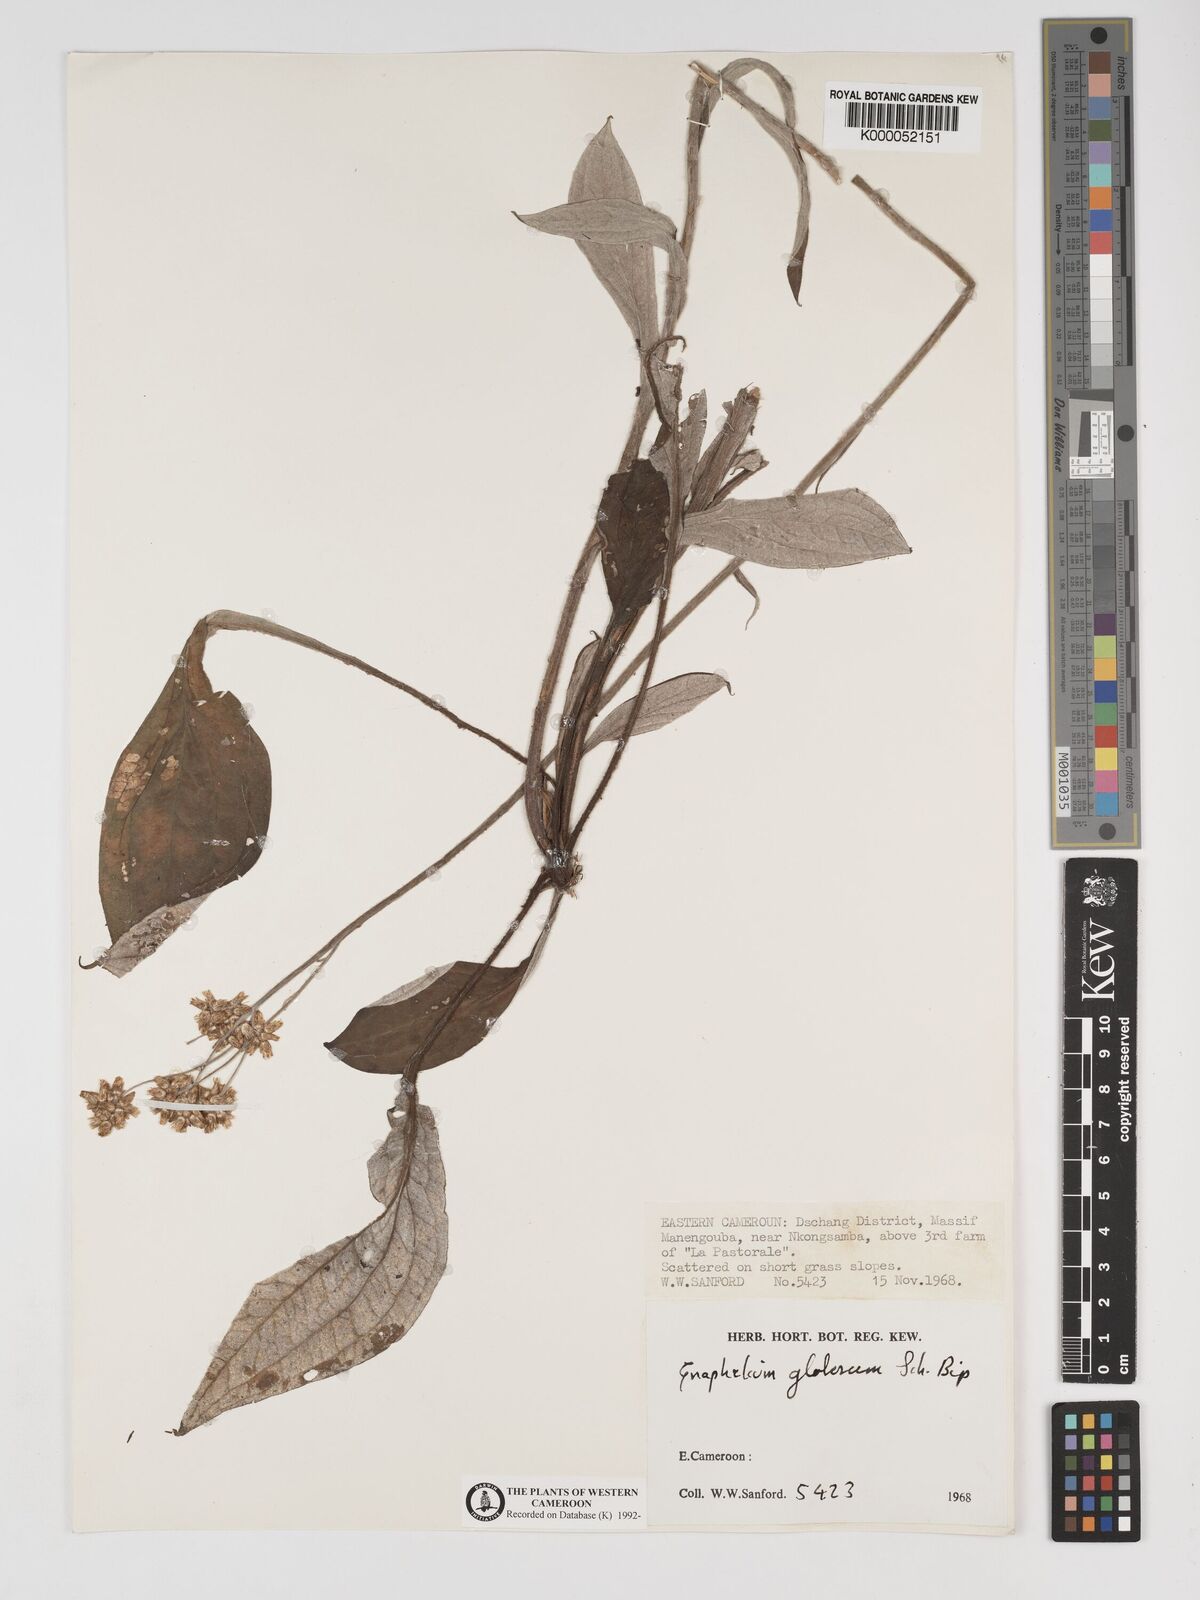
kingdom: Plantae
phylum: Tracheophyta
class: Magnoliopsida
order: Asterales
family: Asteraceae
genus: Helichrysum
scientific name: Helichrysum
